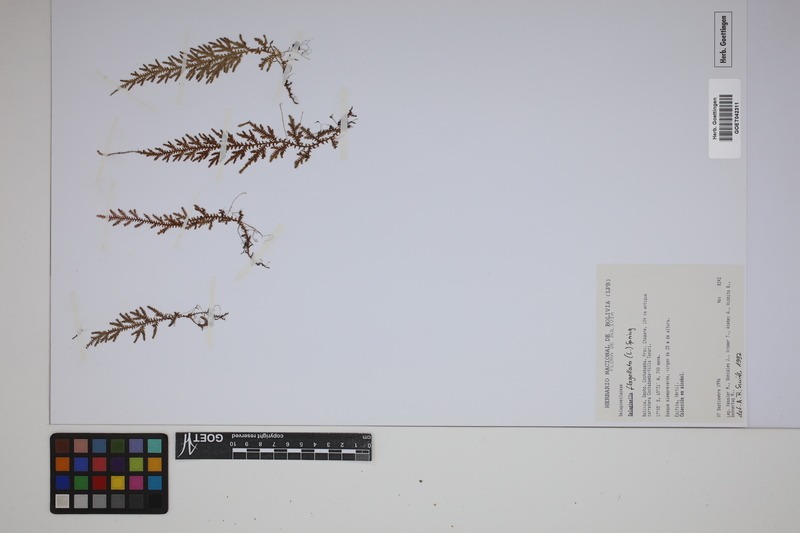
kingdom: Plantae
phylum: Tracheophyta
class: Lycopodiopsida
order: Selaginellales
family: Selaginellaceae
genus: Selaginella
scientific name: Selaginella flagellata
